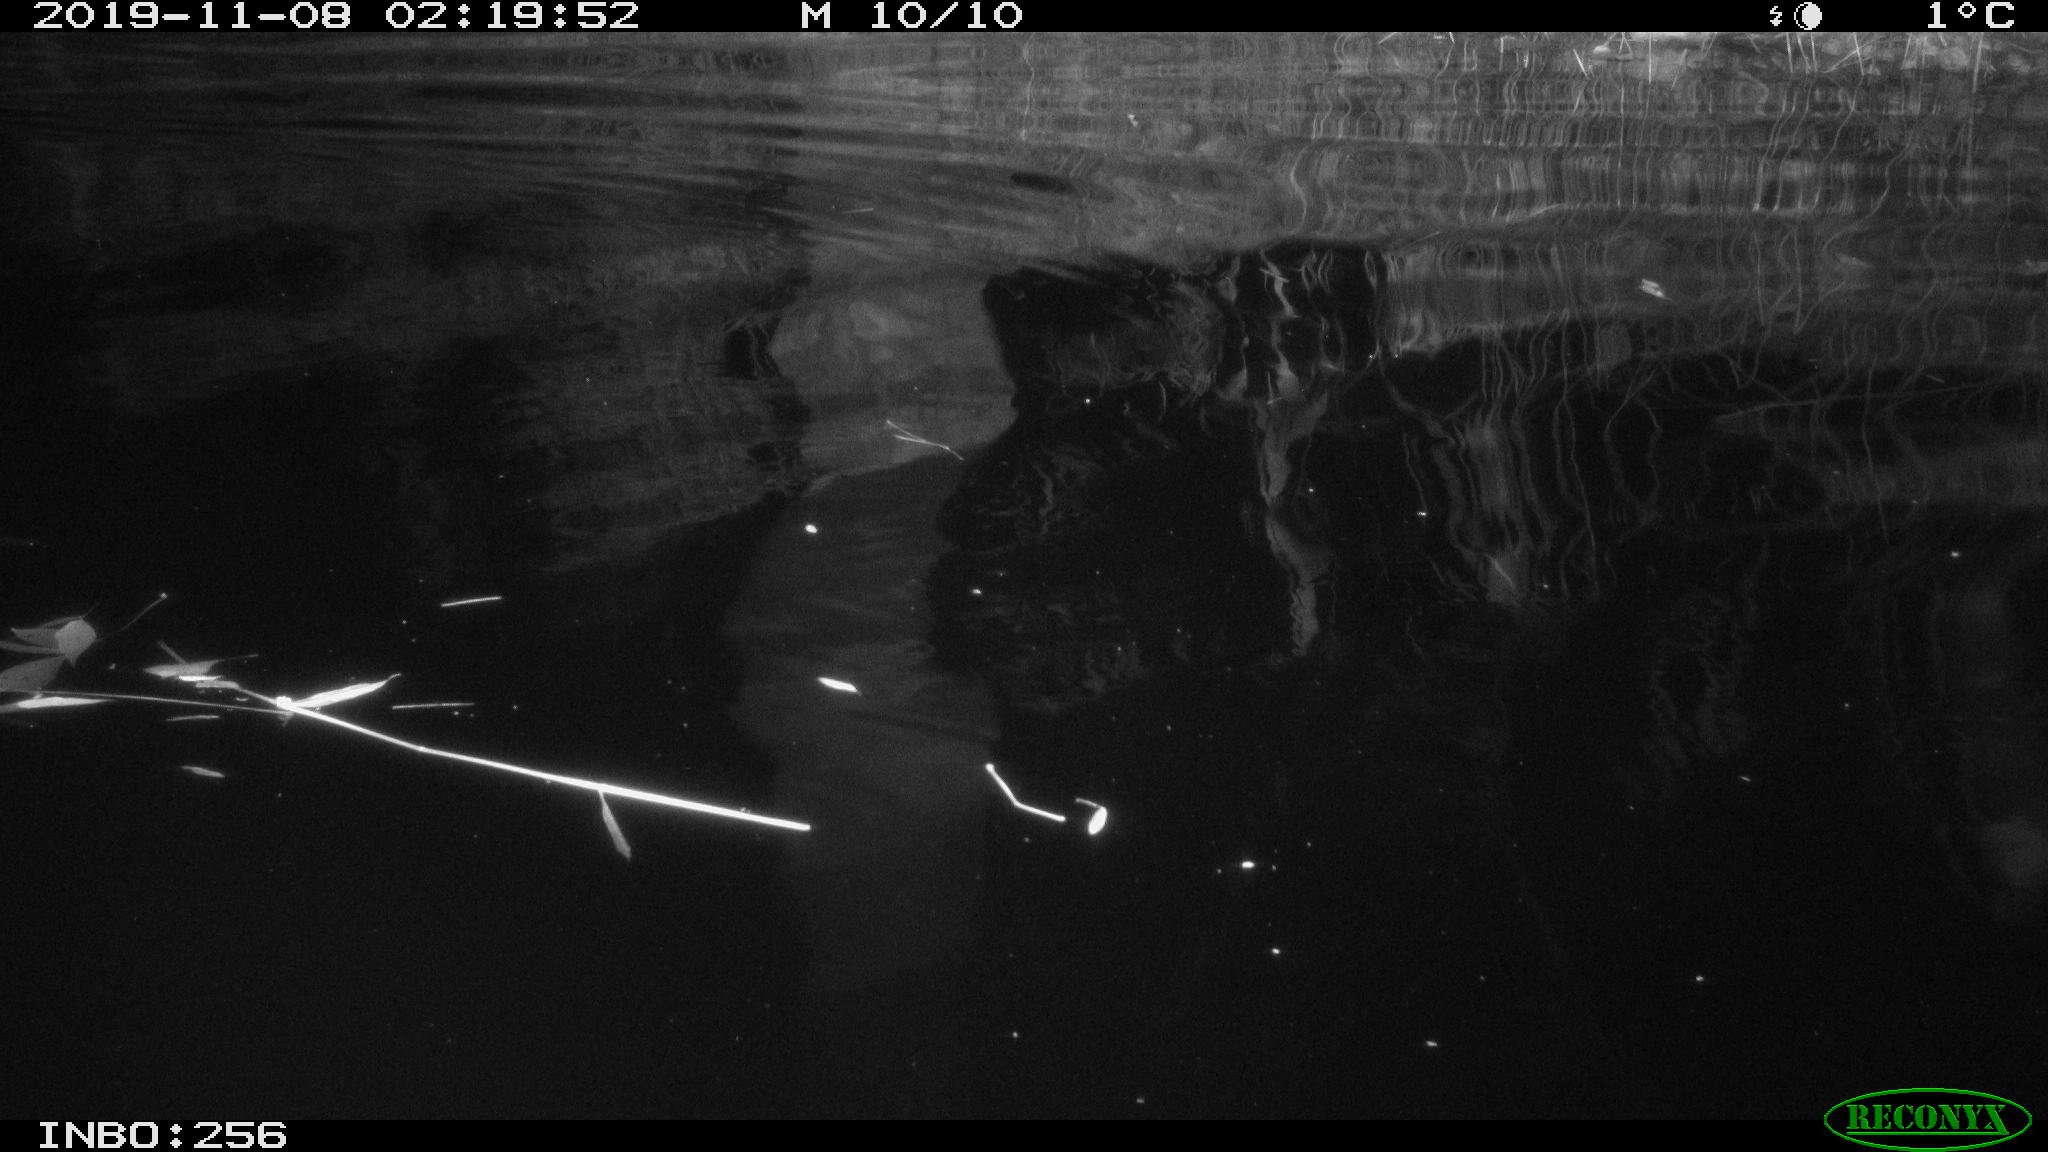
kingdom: Animalia
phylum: Chordata
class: Mammalia
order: Rodentia
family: Muridae
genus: Rattus
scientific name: Rattus norvegicus
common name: Brown rat
